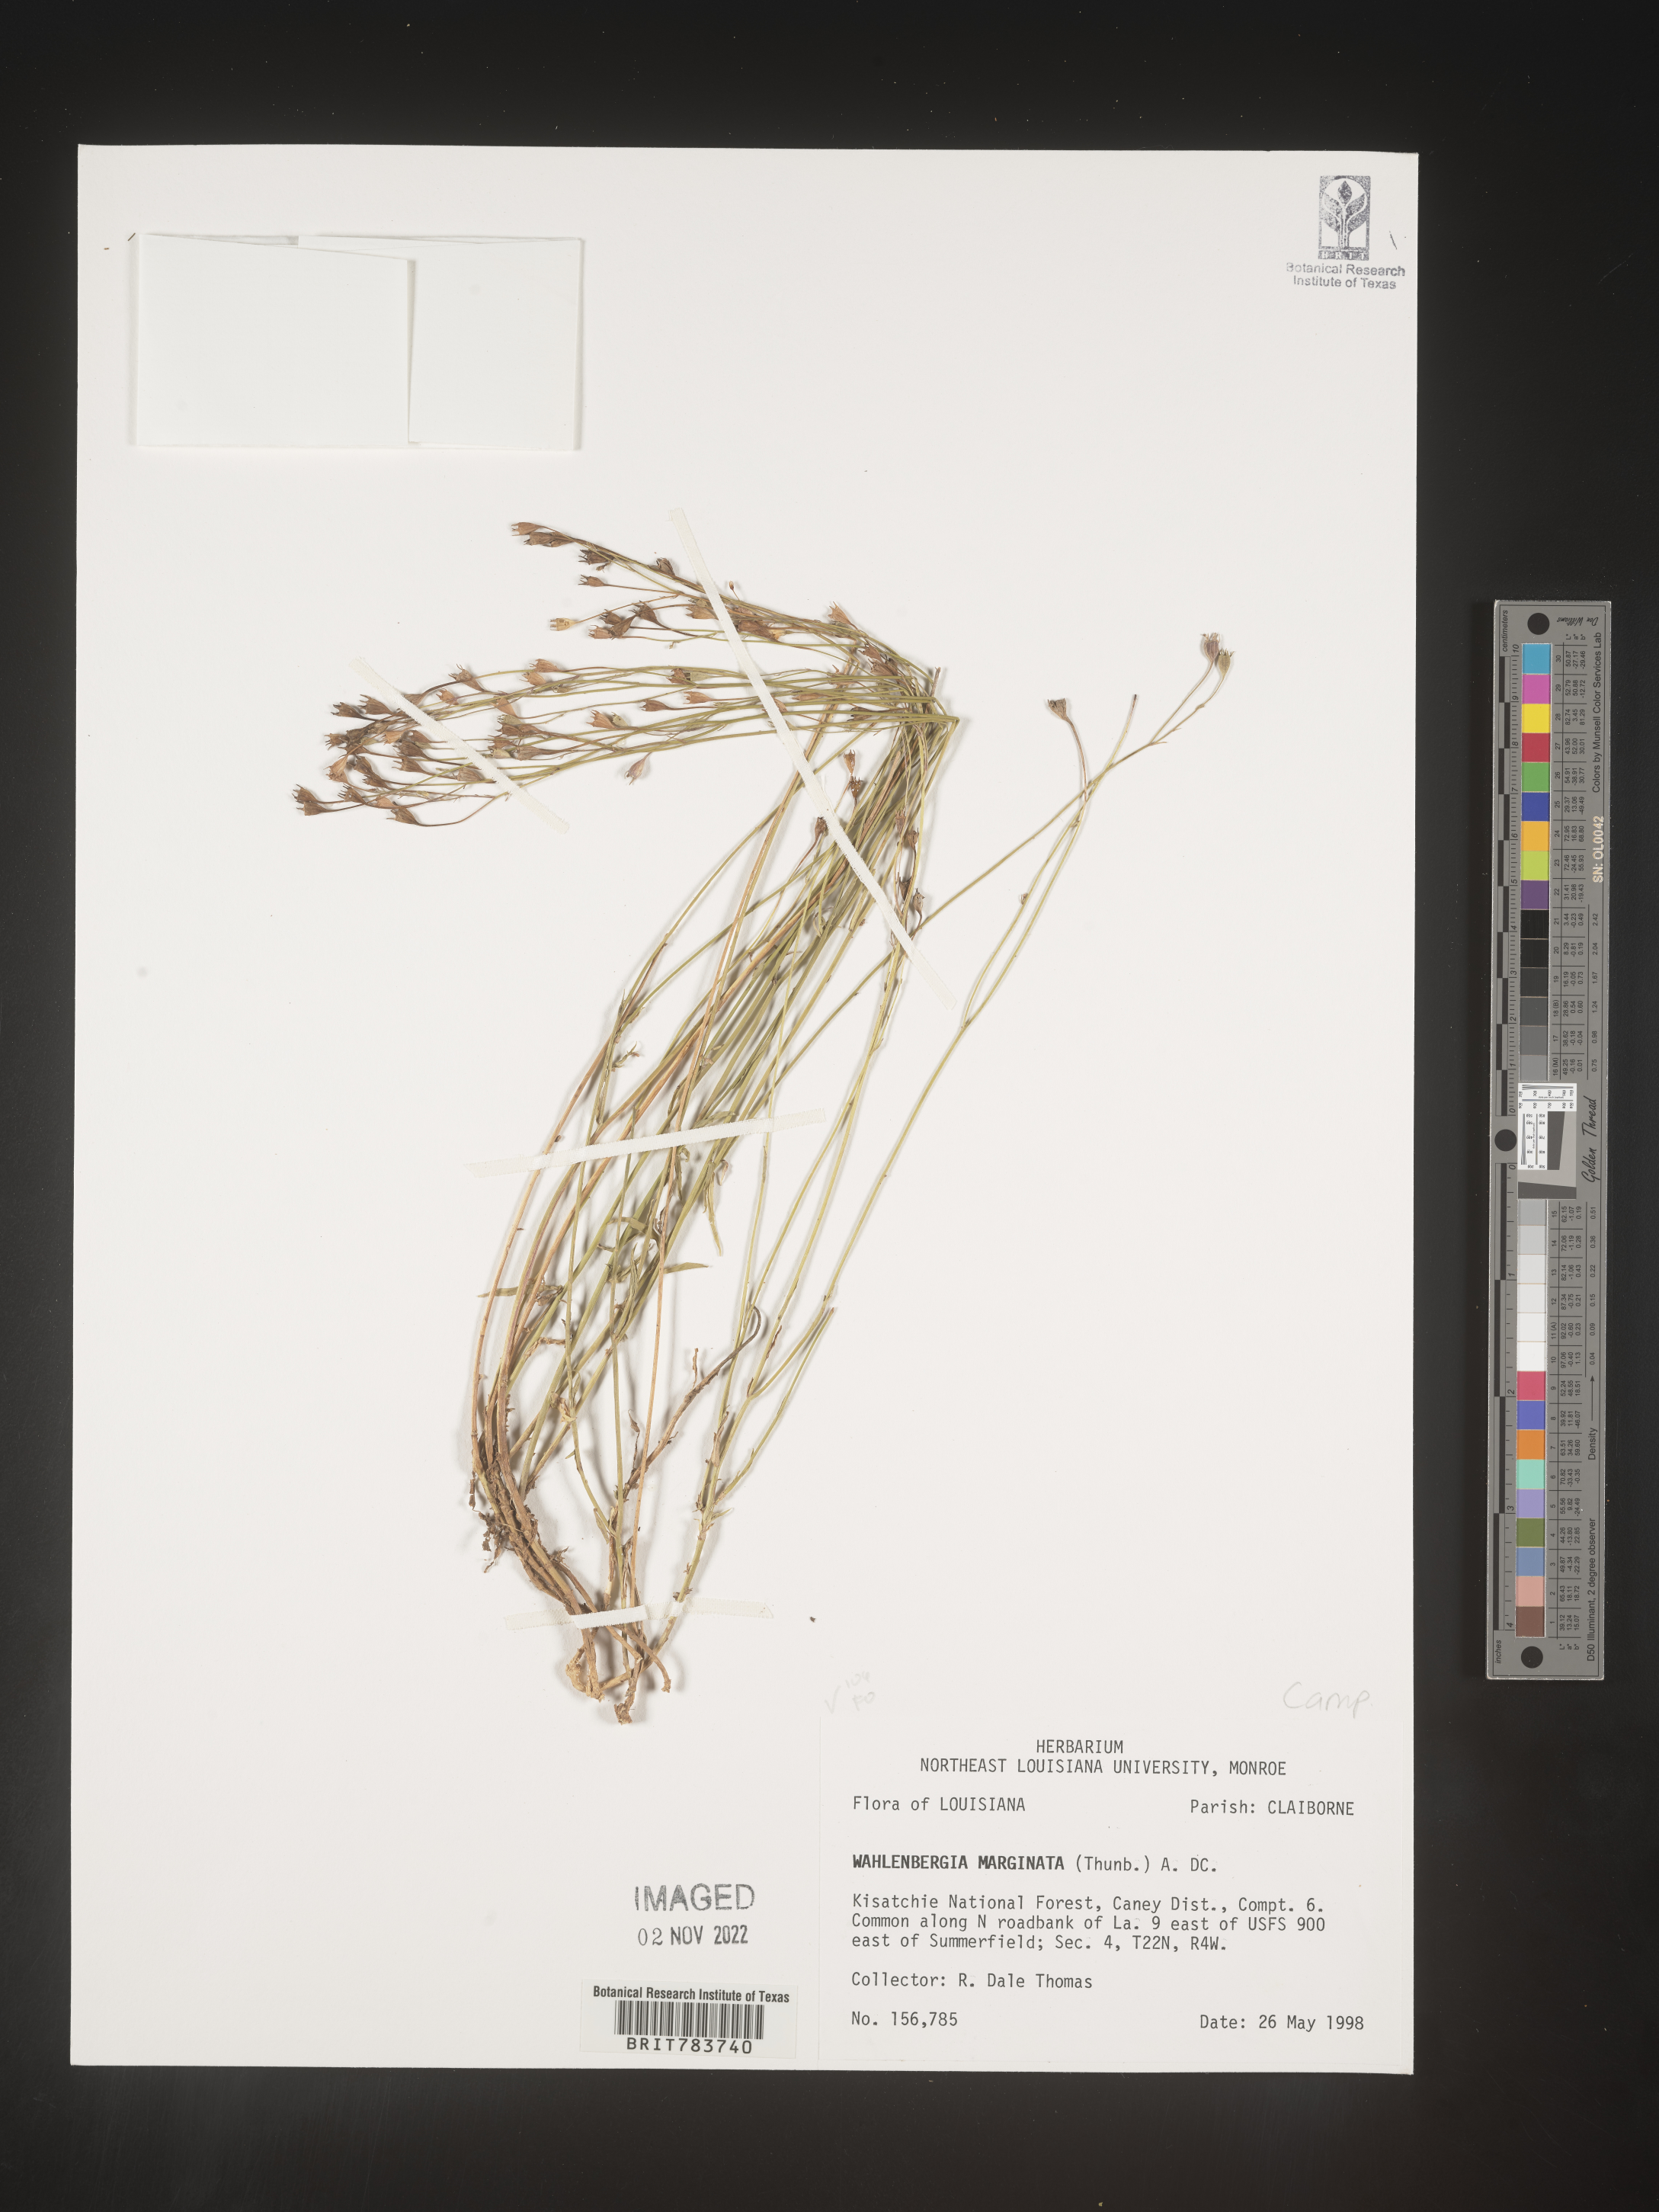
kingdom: Plantae
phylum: Tracheophyta
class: Magnoliopsida
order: Asterales
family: Campanulaceae
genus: Wahlenbergia
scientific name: Wahlenbergia marginata
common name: Southern rockbell
